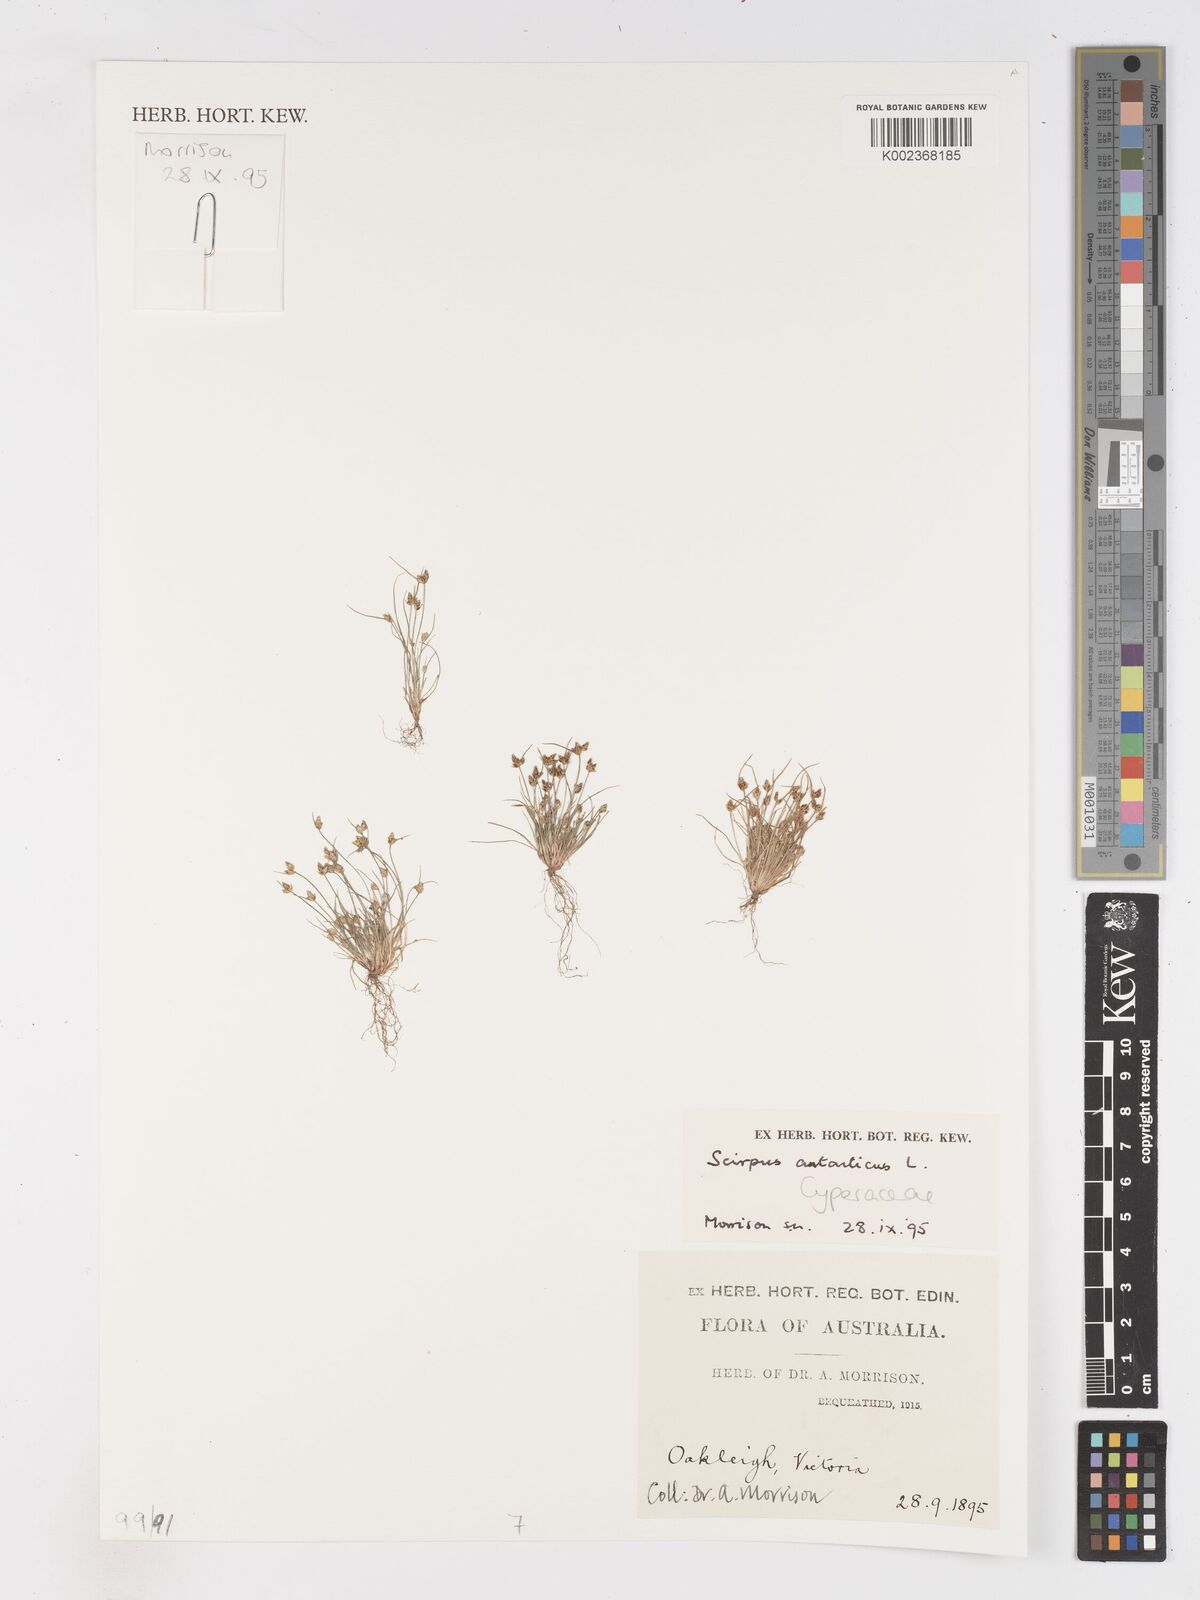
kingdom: Plantae
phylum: Tracheophyta
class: Liliopsida
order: Poales
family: Cyperaceae
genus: Isolepis
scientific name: Isolepis antarctica
